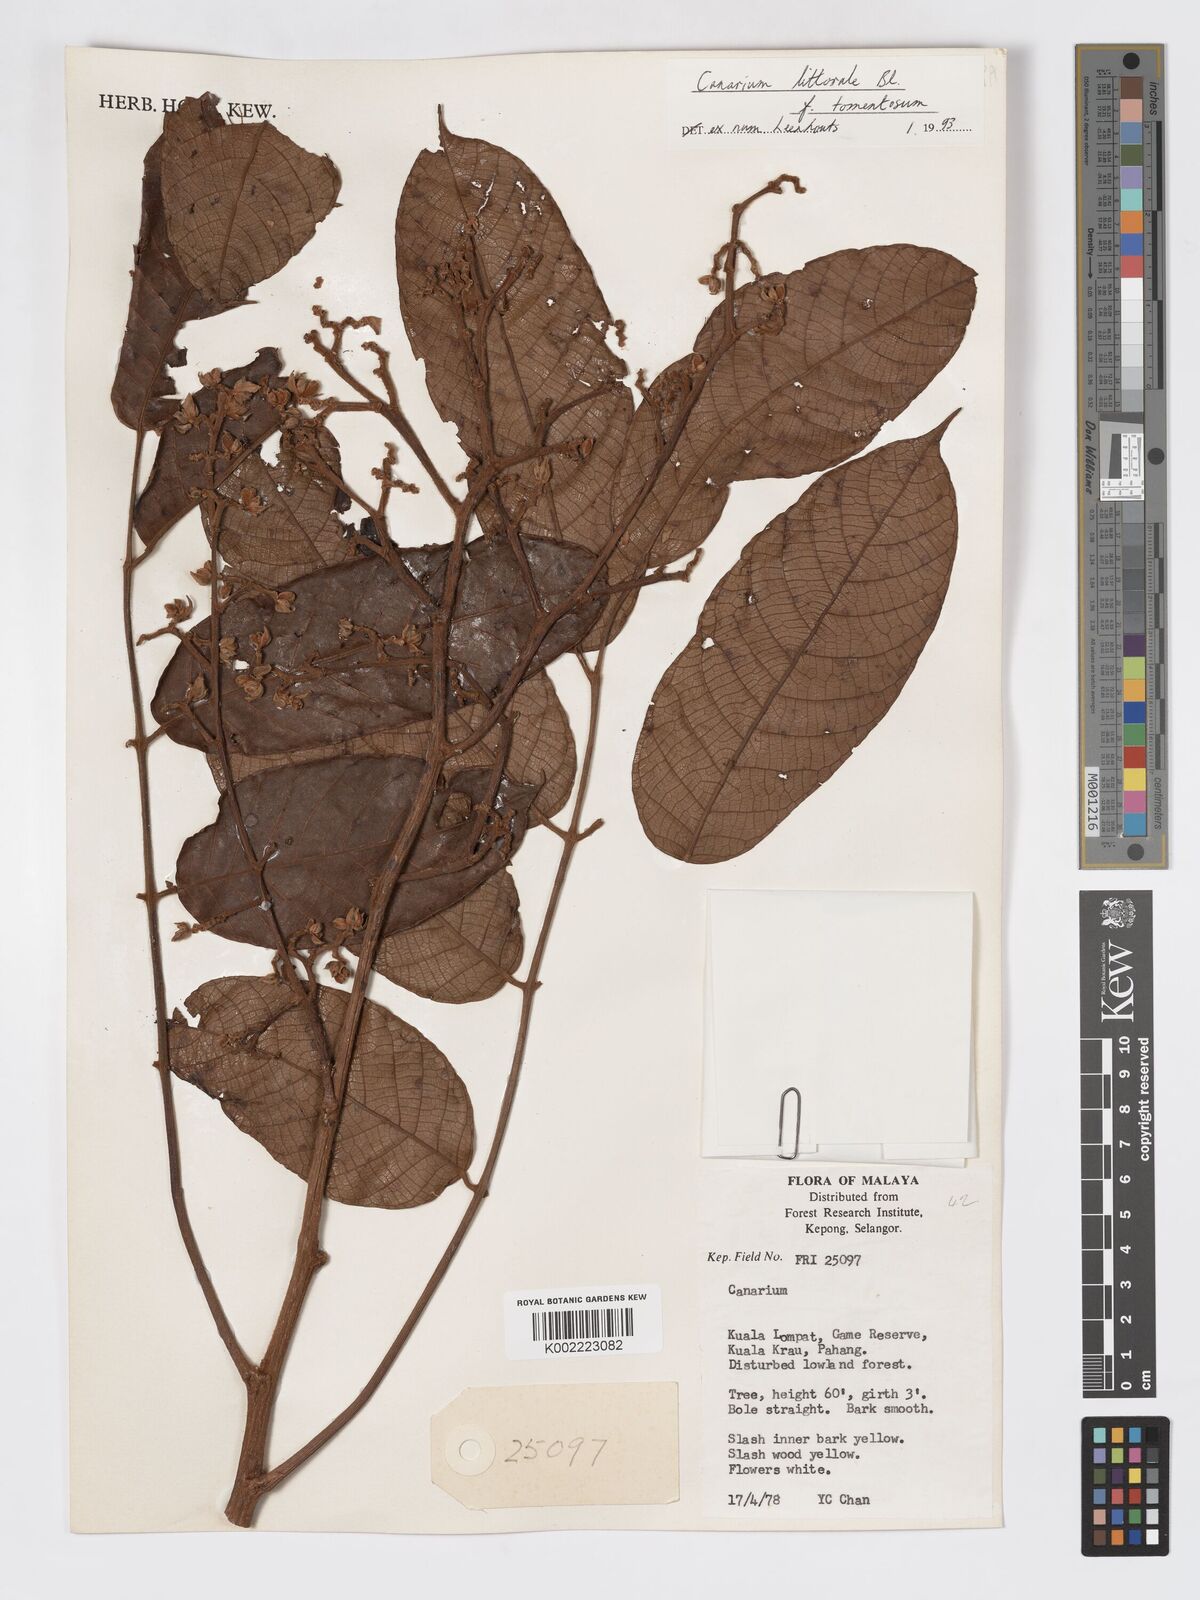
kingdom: Plantae
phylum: Tracheophyta
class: Magnoliopsida
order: Sapindales
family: Burseraceae
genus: Canarium
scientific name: Canarium littorale
